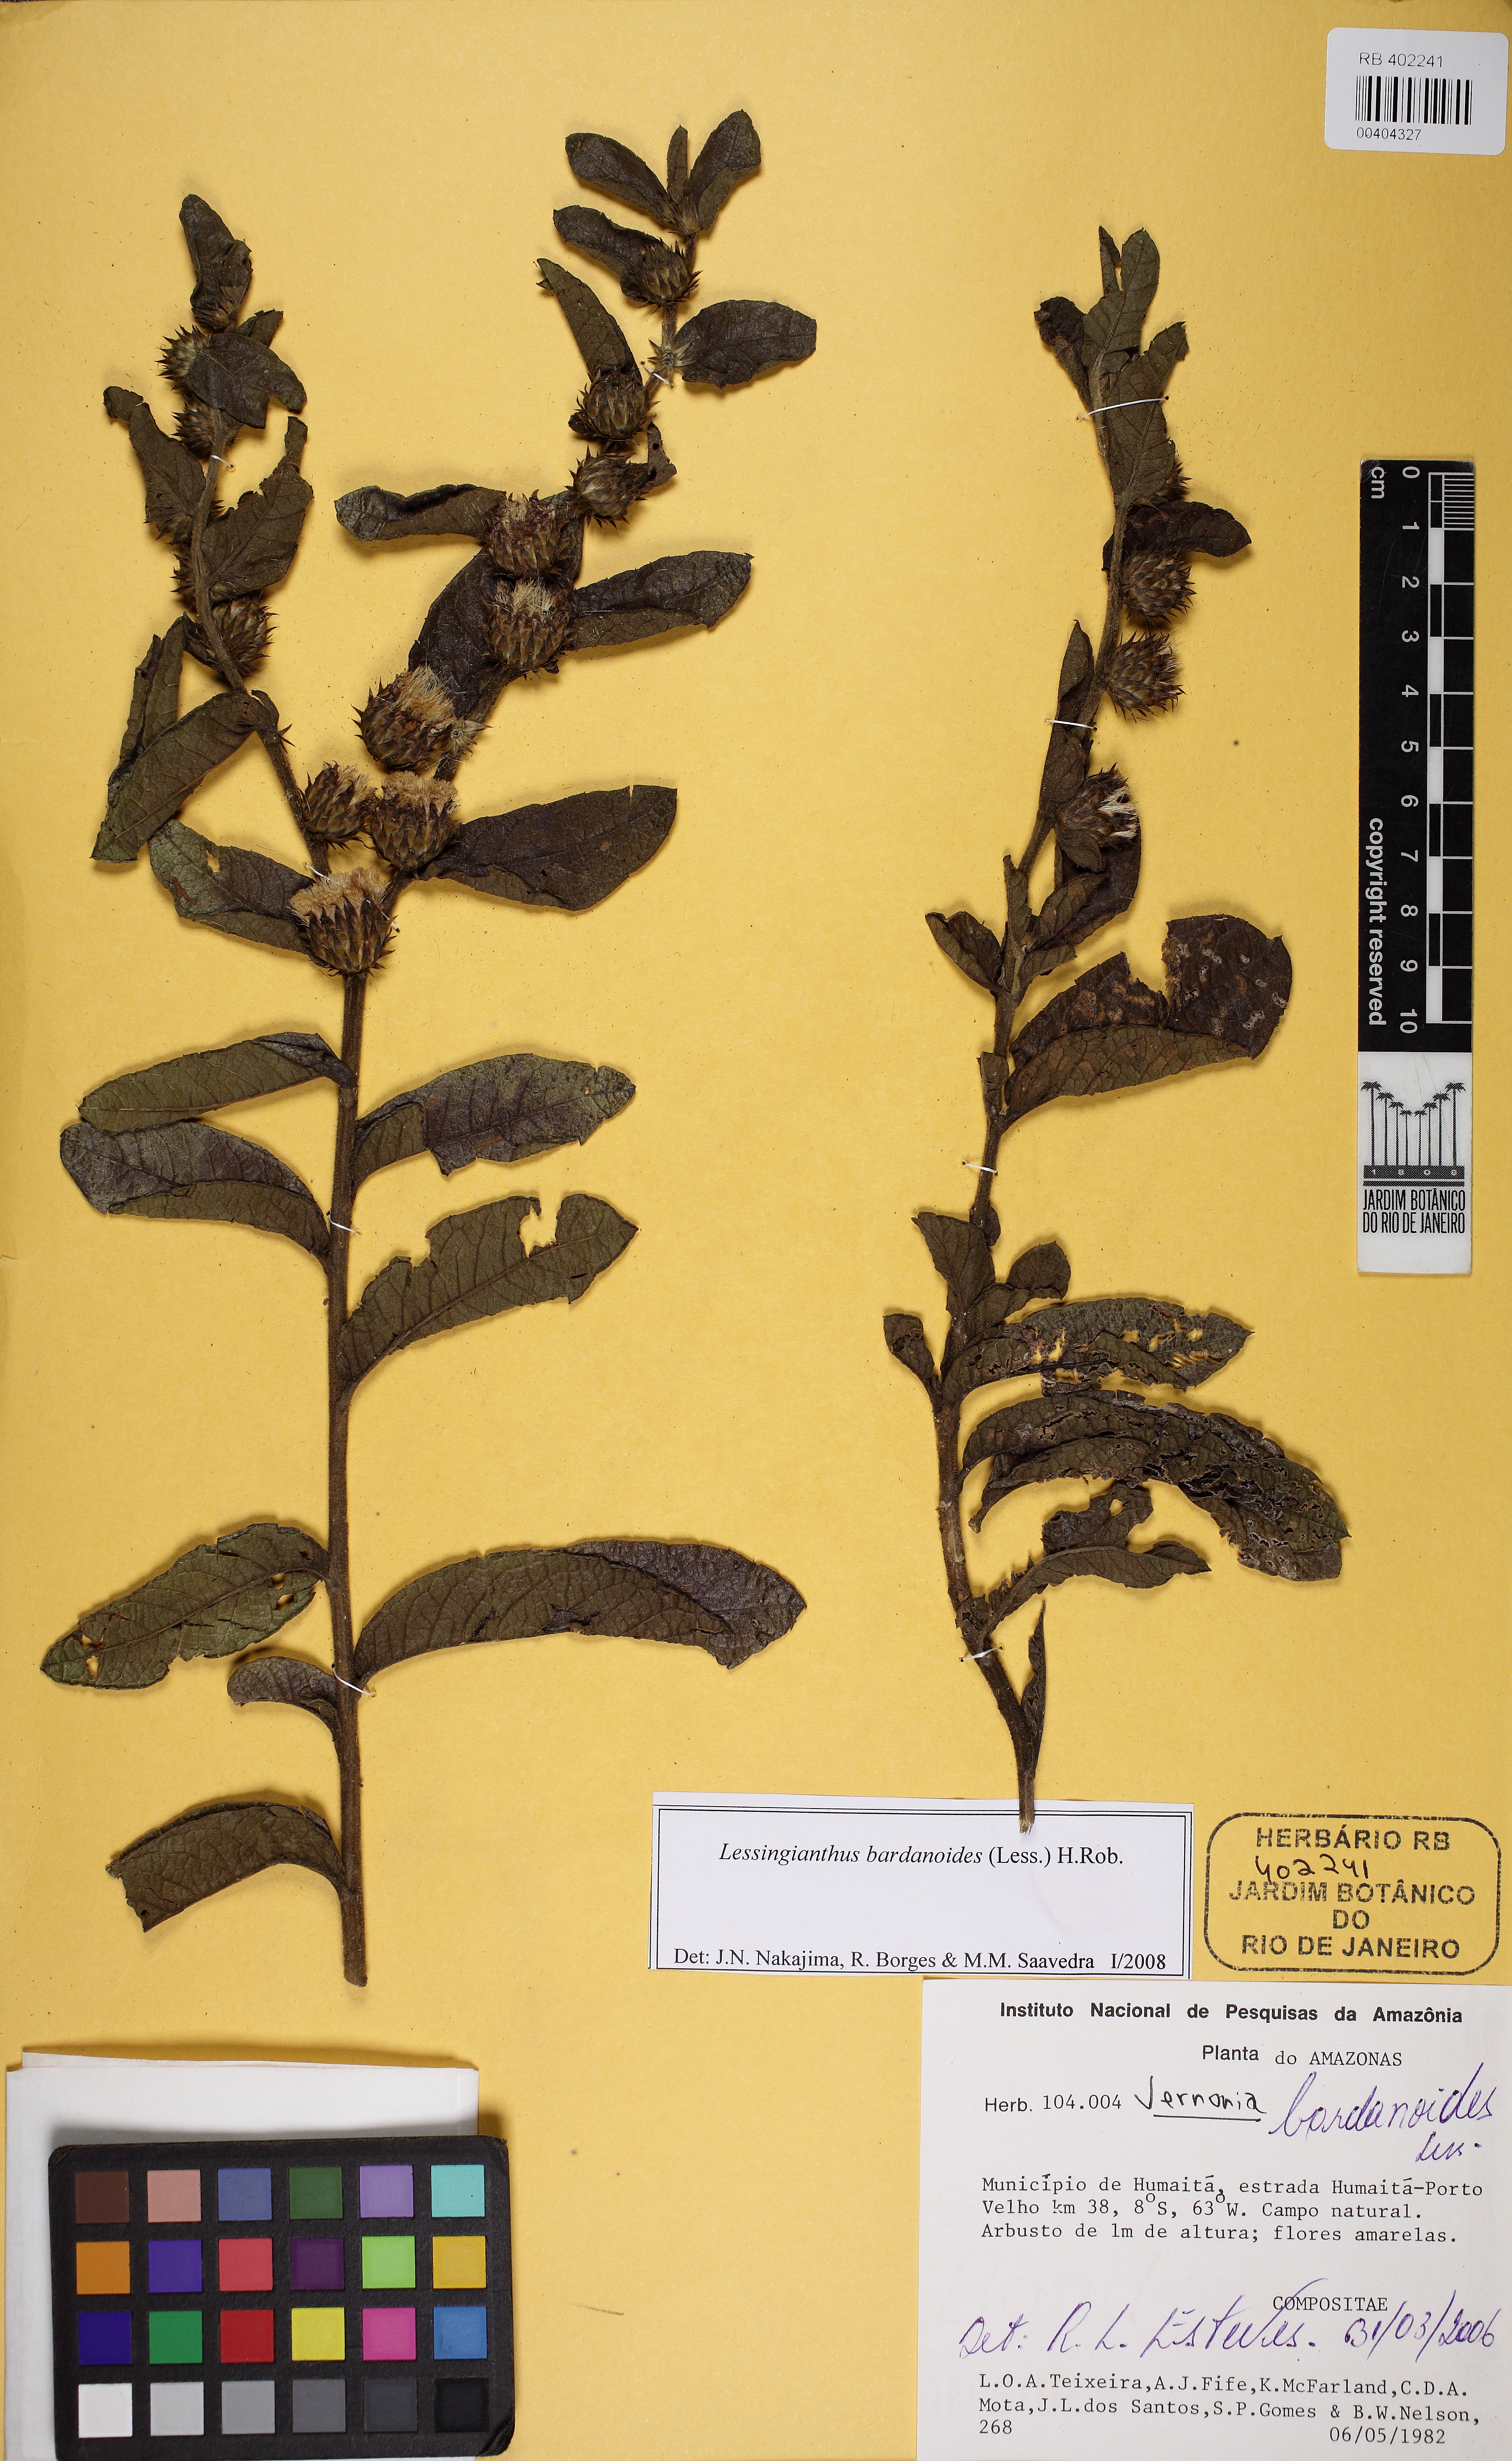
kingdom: Plantae
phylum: Tracheophyta
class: Magnoliopsida
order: Asterales
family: Asteraceae
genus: Lessingianthus
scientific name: Lessingianthus bardanioides
